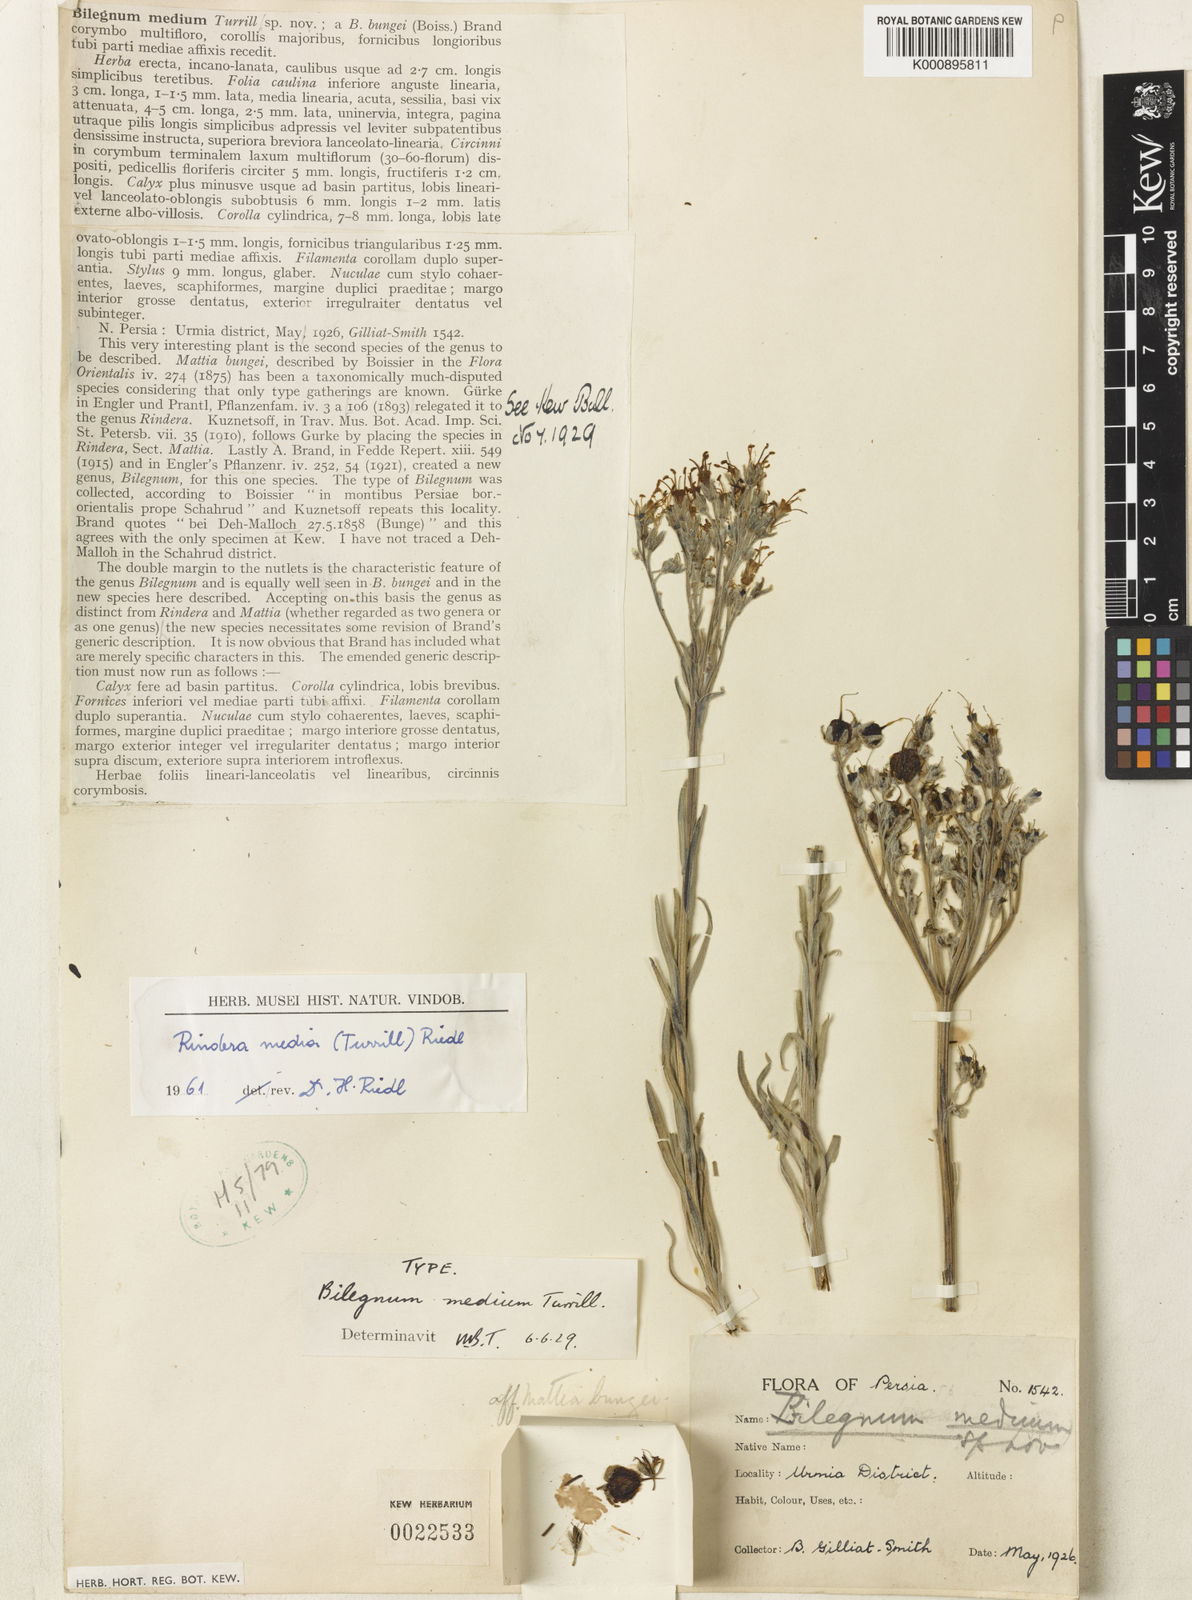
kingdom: Plantae
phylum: Tracheophyta
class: Magnoliopsida
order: Boraginales
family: Boraginaceae
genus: Rindera
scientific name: Rindera
